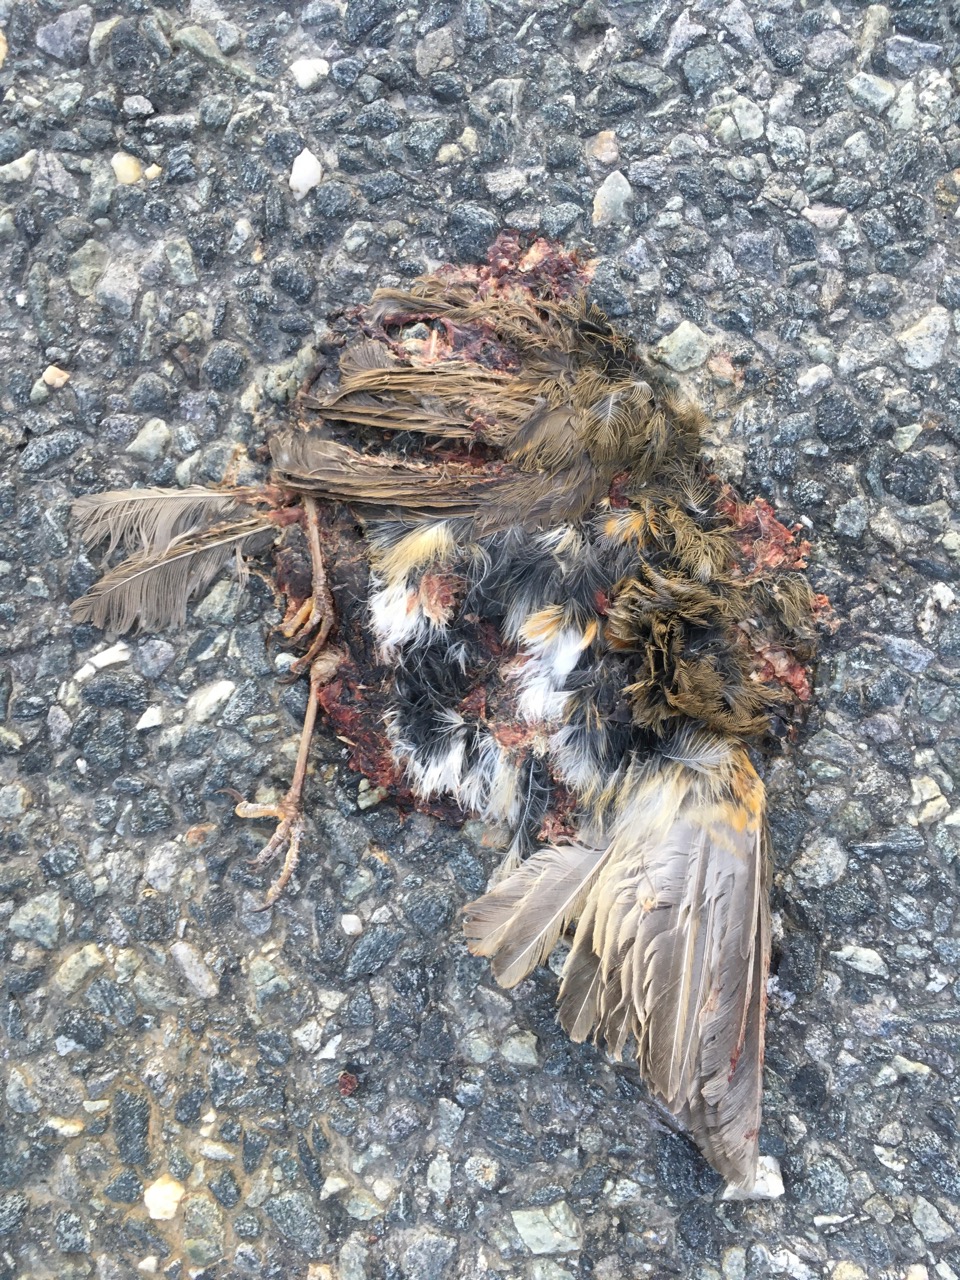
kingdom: Animalia
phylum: Chordata
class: Aves
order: Passeriformes
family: Muscicapidae
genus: Erithacus
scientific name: Erithacus rubecula
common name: European robin
